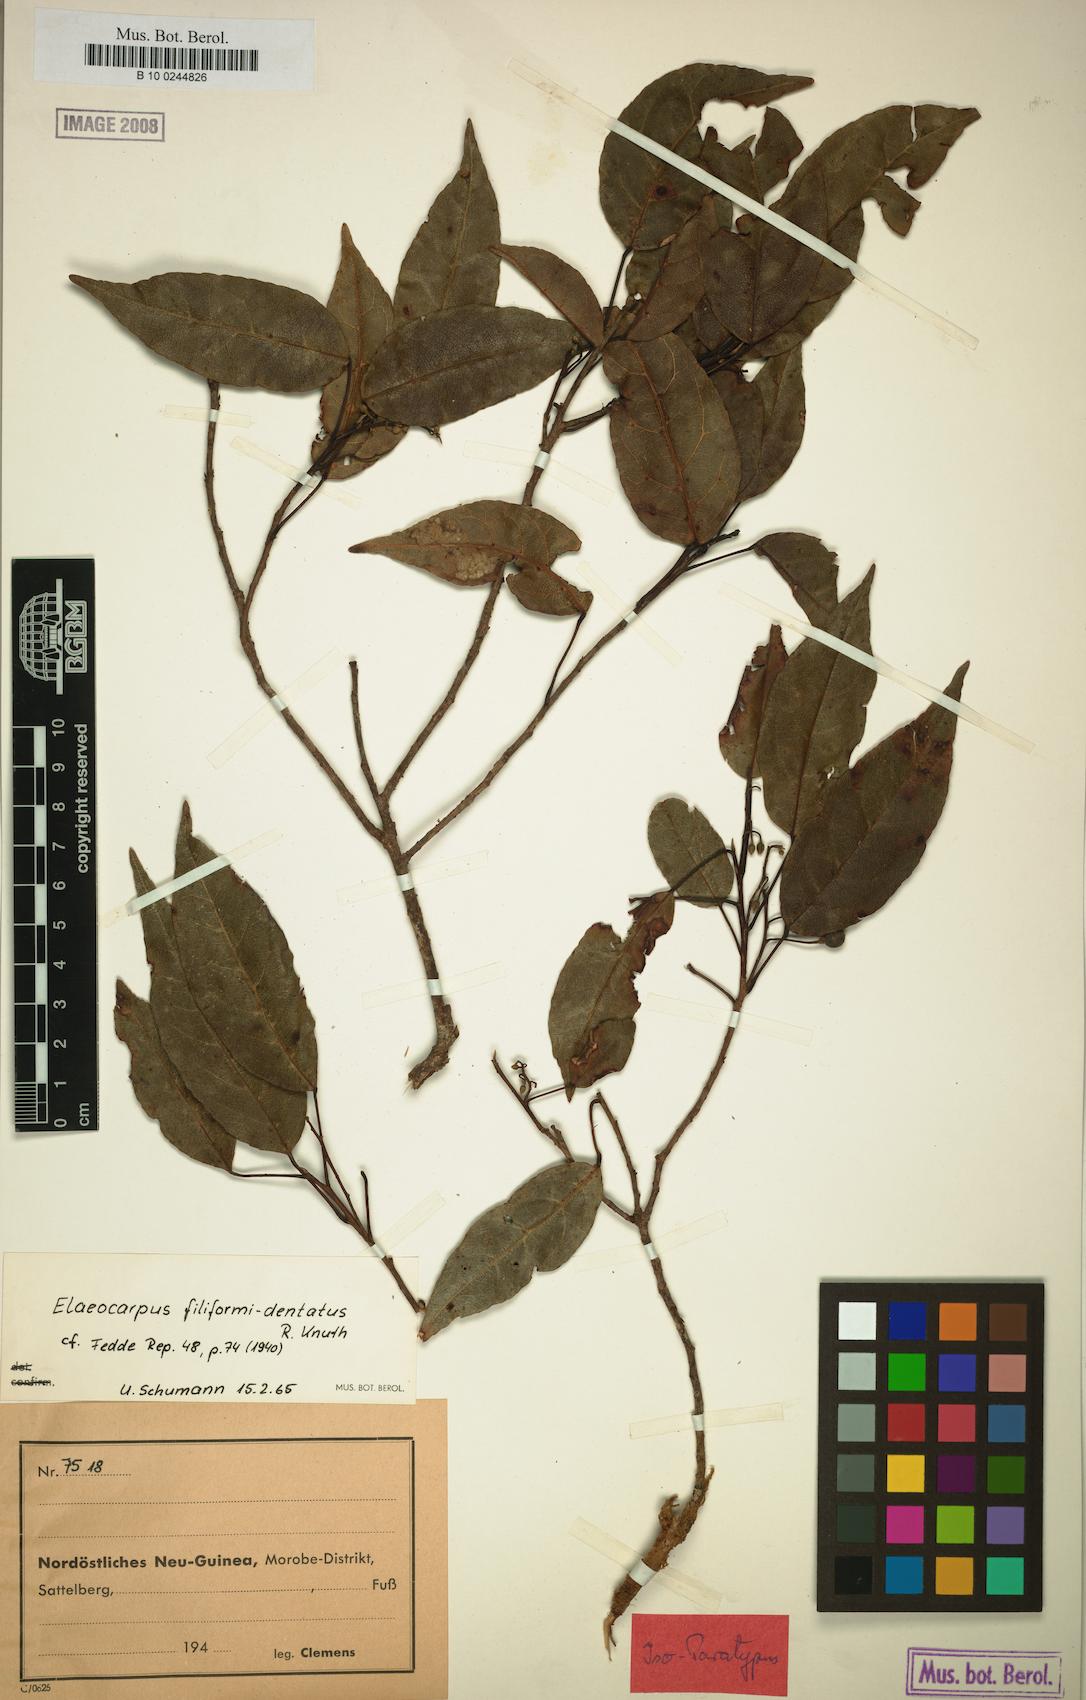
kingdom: Plantae
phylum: Tracheophyta
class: Magnoliopsida
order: Oxalidales
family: Elaeocarpaceae
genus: Elaeocarpus
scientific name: Elaeocarpus filiformidentatus
